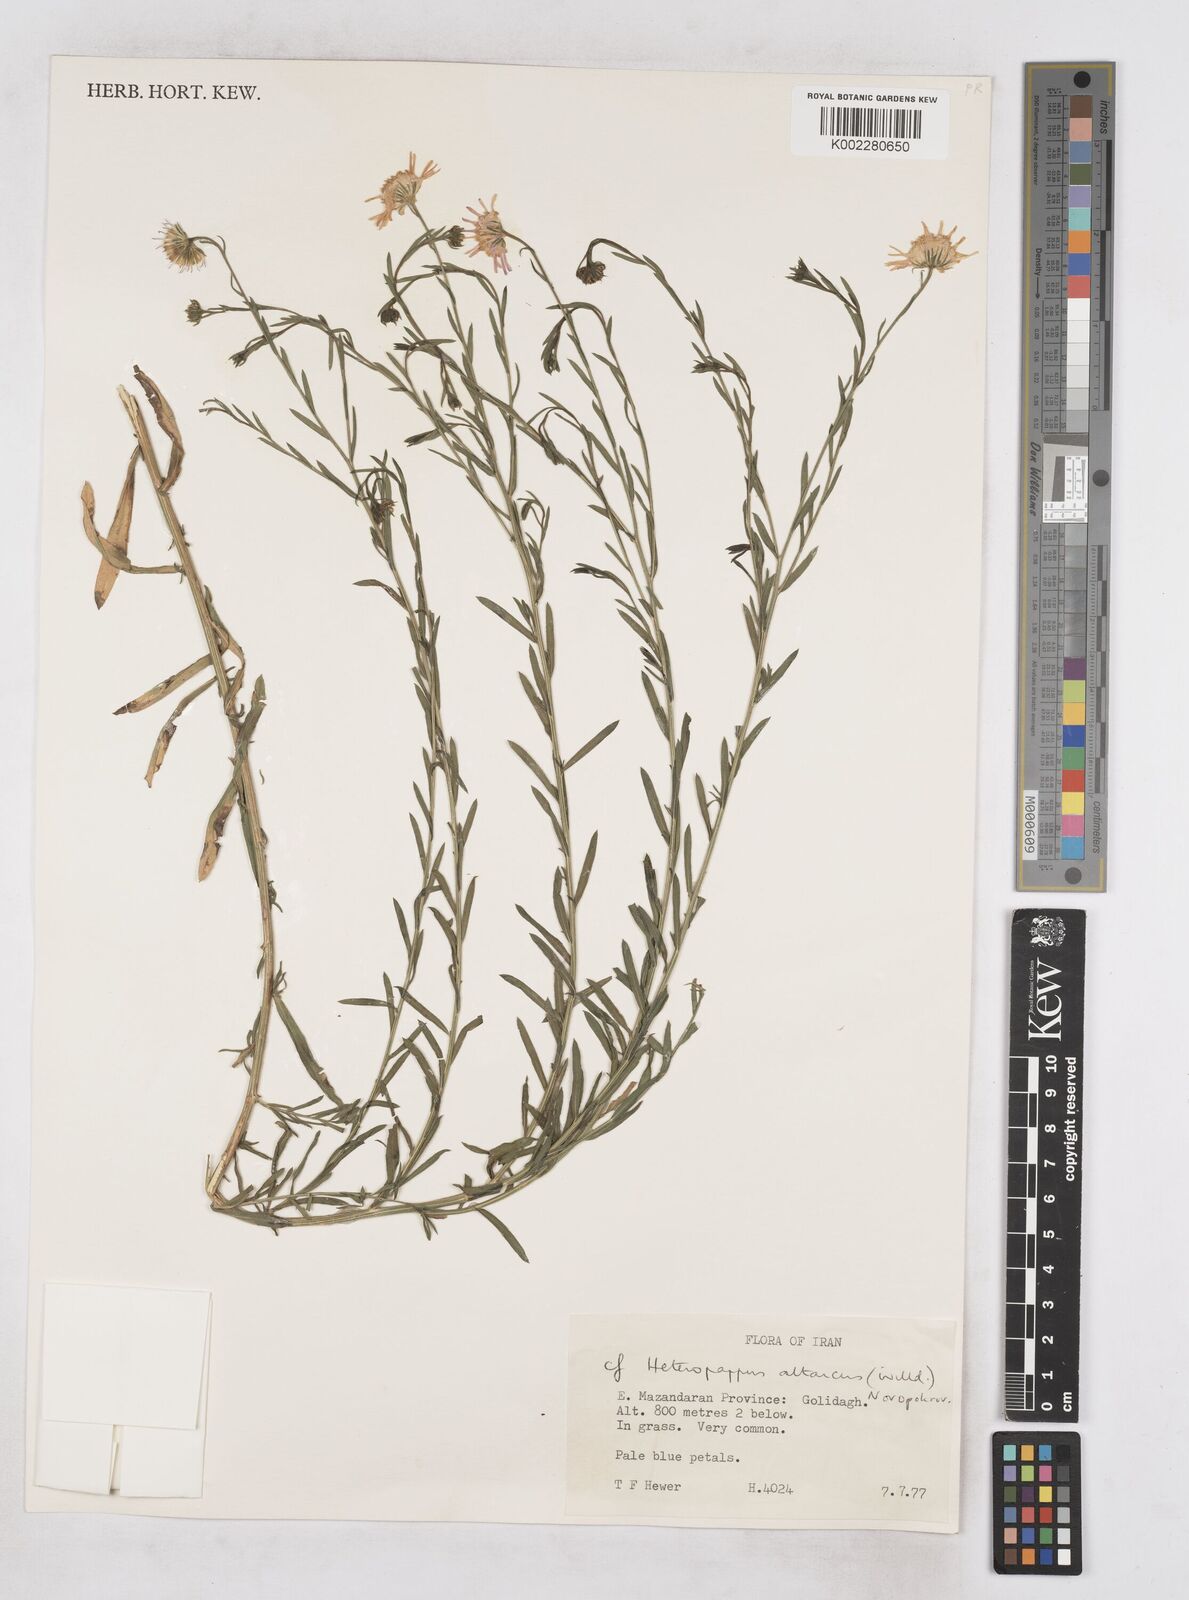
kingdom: Plantae
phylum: Tracheophyta
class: Magnoliopsida
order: Asterales
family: Asteraceae
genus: Heteropappus
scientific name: Heteropappus altaicus
